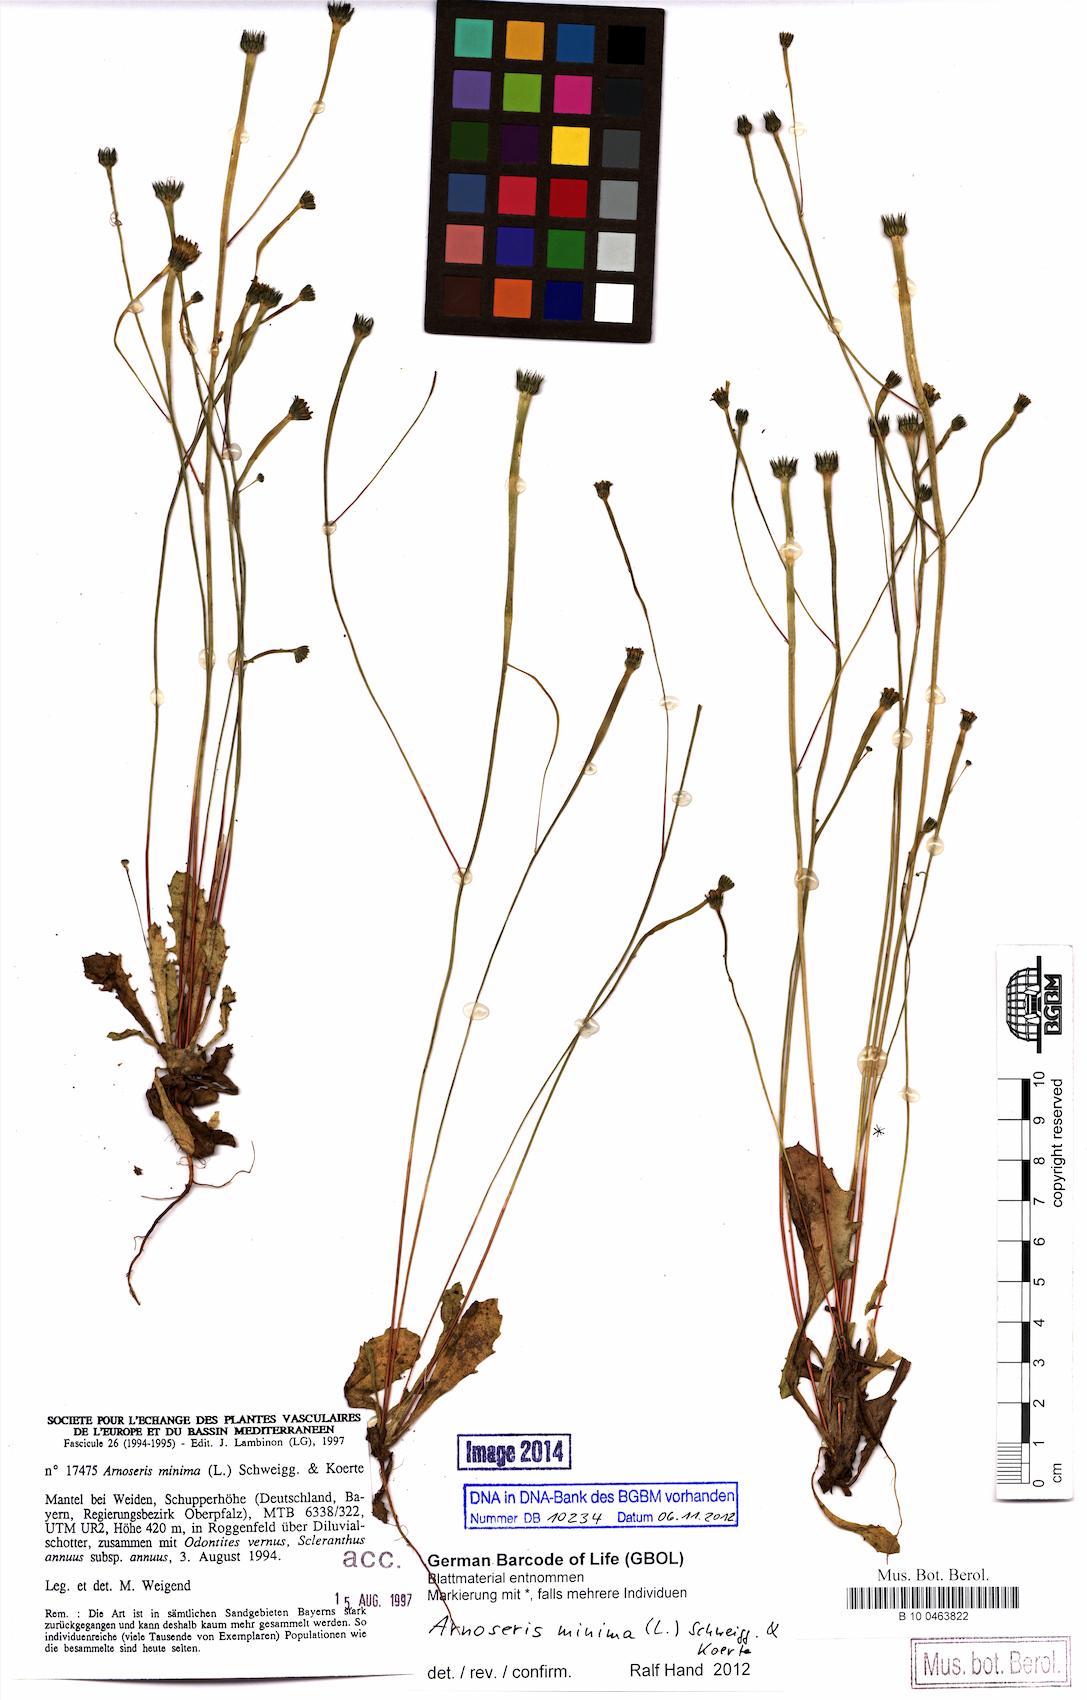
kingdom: Plantae
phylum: Tracheophyta
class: Magnoliopsida
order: Asterales
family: Asteraceae
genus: Arnoseris
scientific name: Arnoseris minima
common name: Lamb's succory
